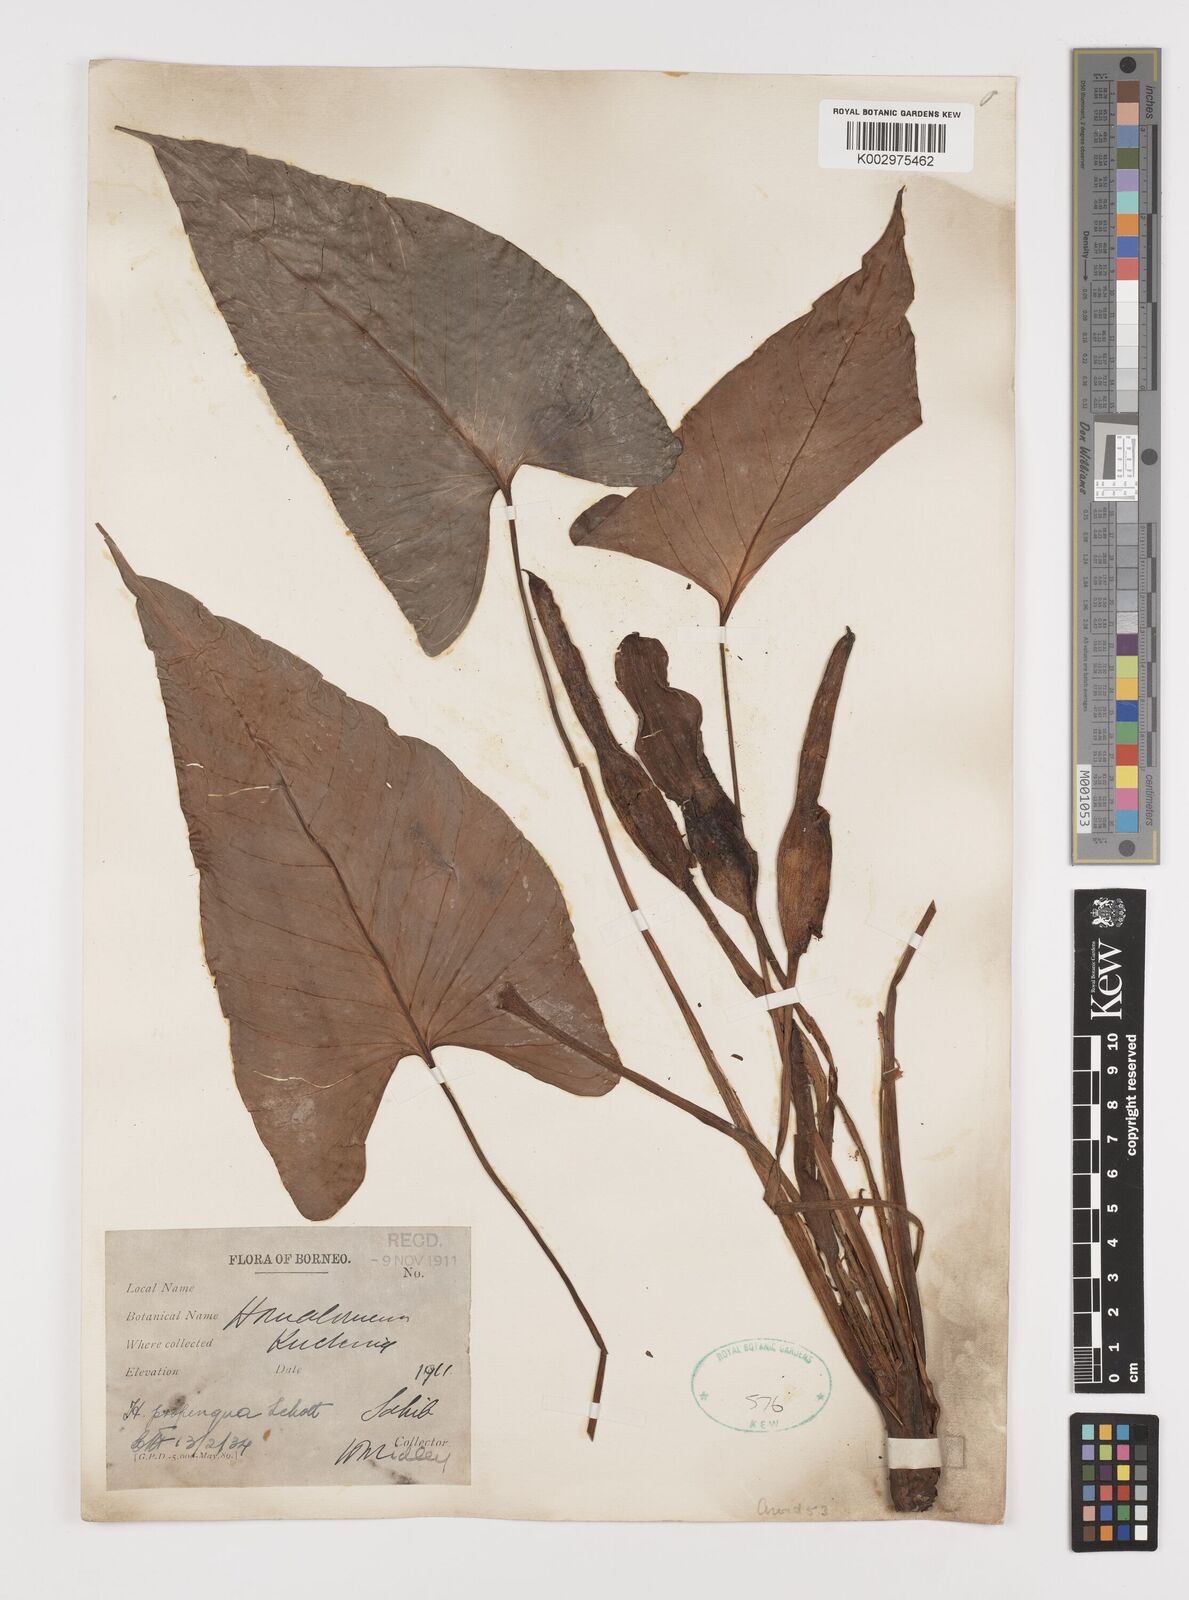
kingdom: Plantae
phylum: Tracheophyta
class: Liliopsida
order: Alismatales
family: Araceae
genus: Homalomena
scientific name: Homalomena humilis
